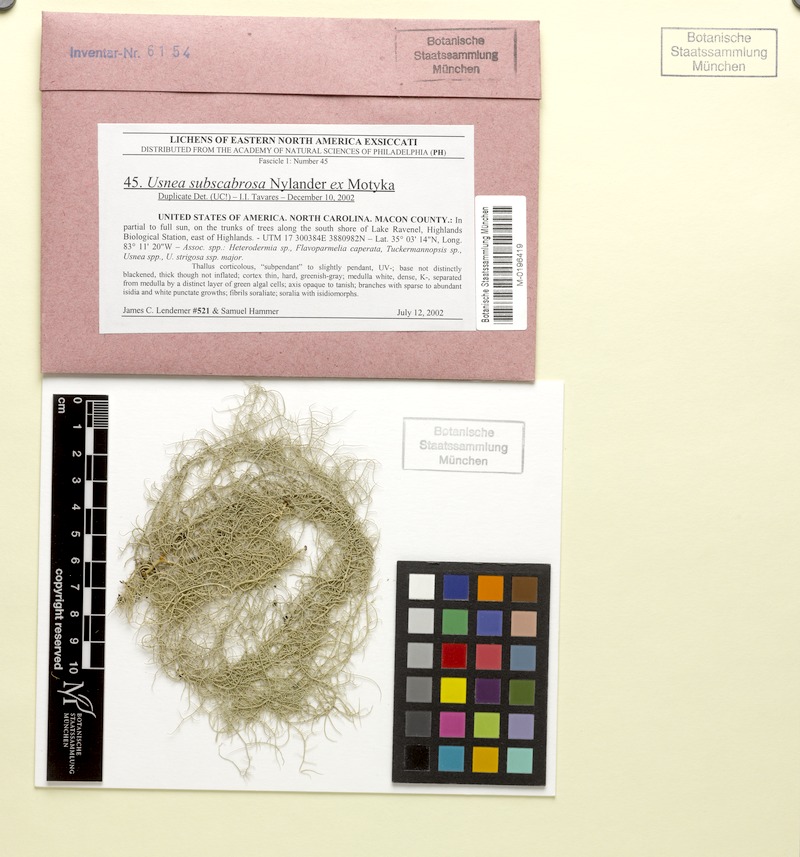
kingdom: Fungi
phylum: Ascomycota
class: Lecanoromycetes
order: Lecanorales
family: Parmeliaceae
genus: Usnea
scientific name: Usnea subscabrosa
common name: Beard lichen
